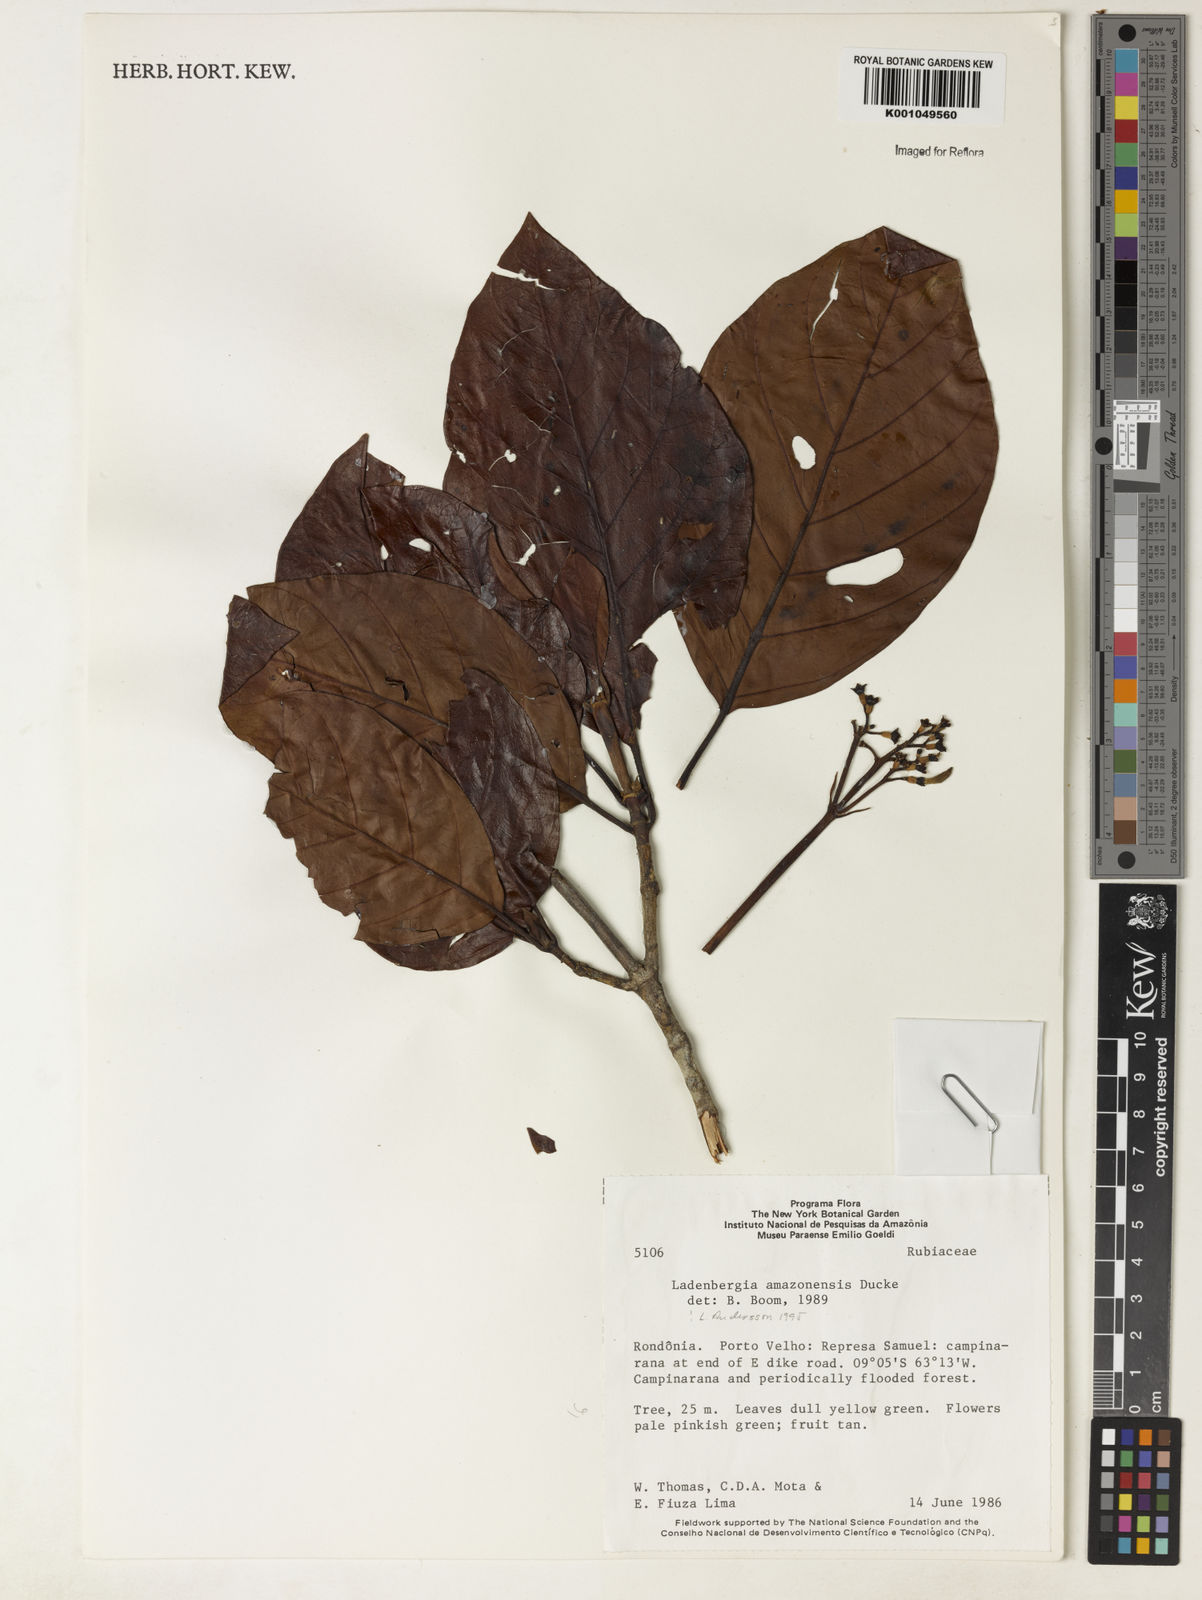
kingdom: Plantae
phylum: Tracheophyta
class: Magnoliopsida
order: Gentianales
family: Rubiaceae
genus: Ladenbergia
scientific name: Ladenbergia amazonensis
